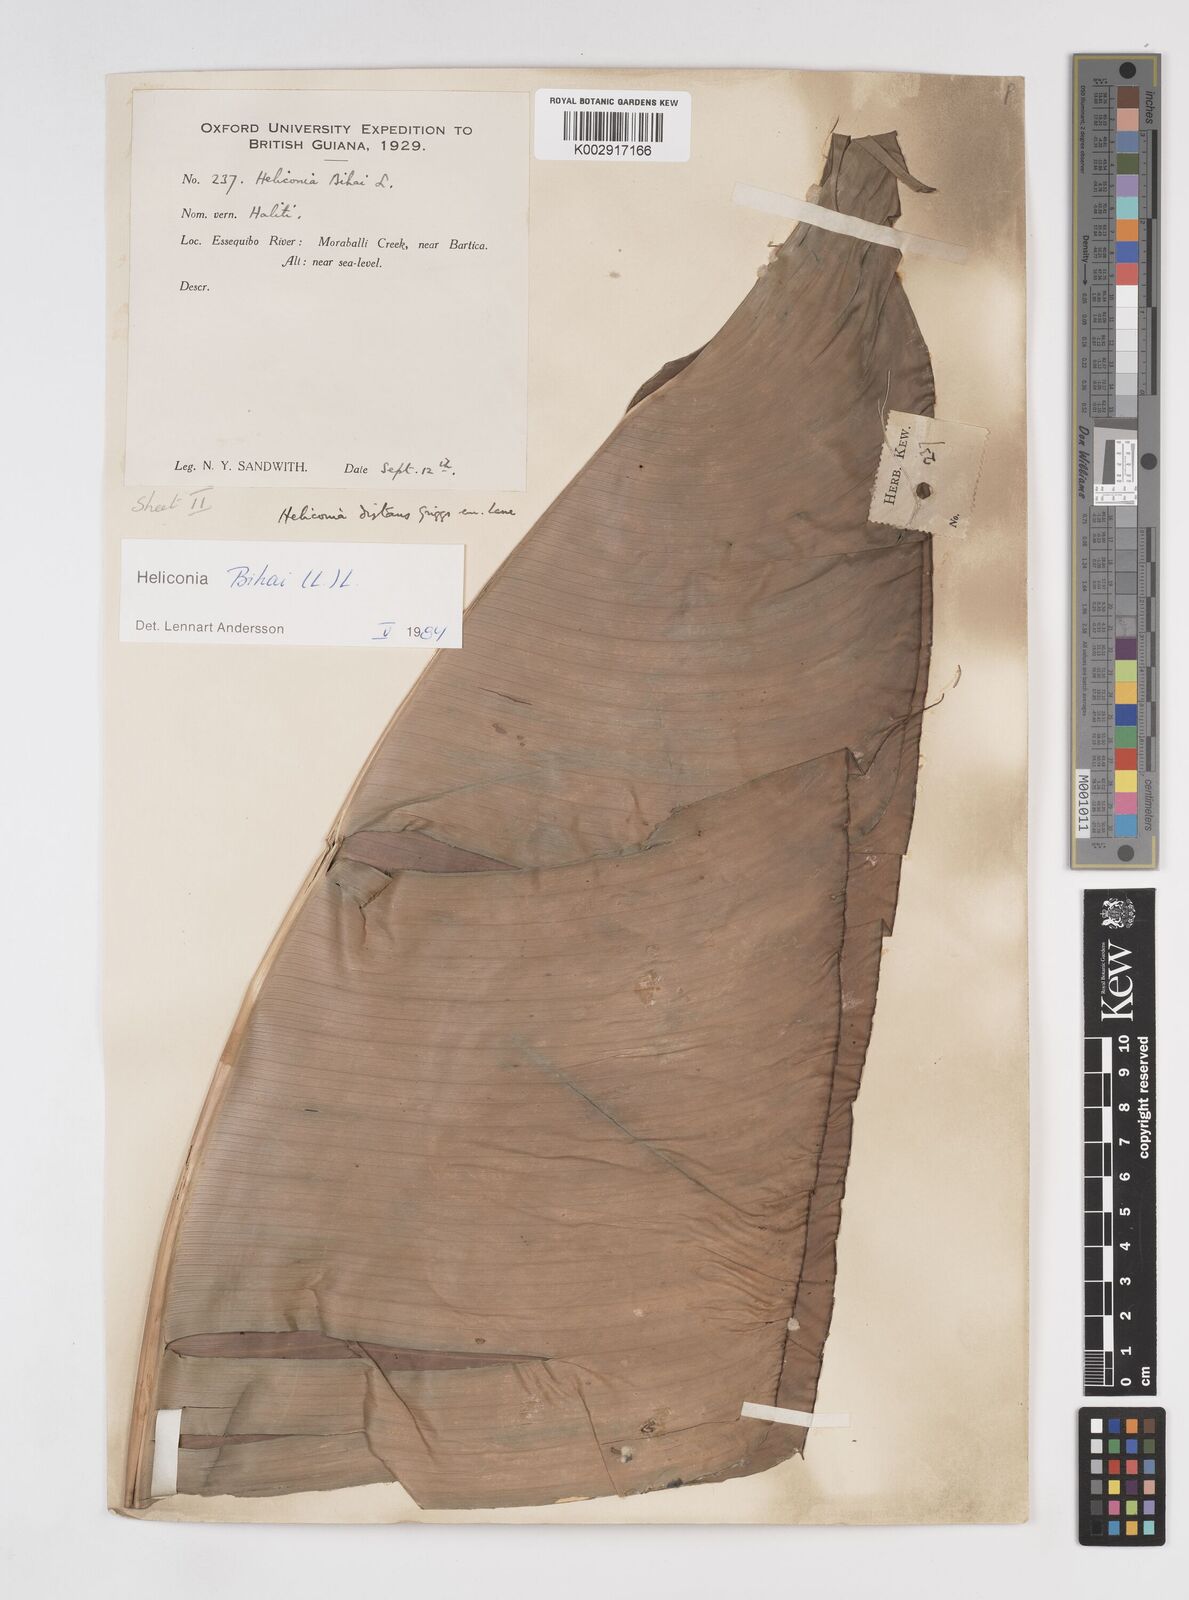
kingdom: Plantae
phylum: Tracheophyta
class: Liliopsida
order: Zingiberales
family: Heliconiaceae
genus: Heliconia
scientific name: Heliconia bihai
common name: Macaw flower
